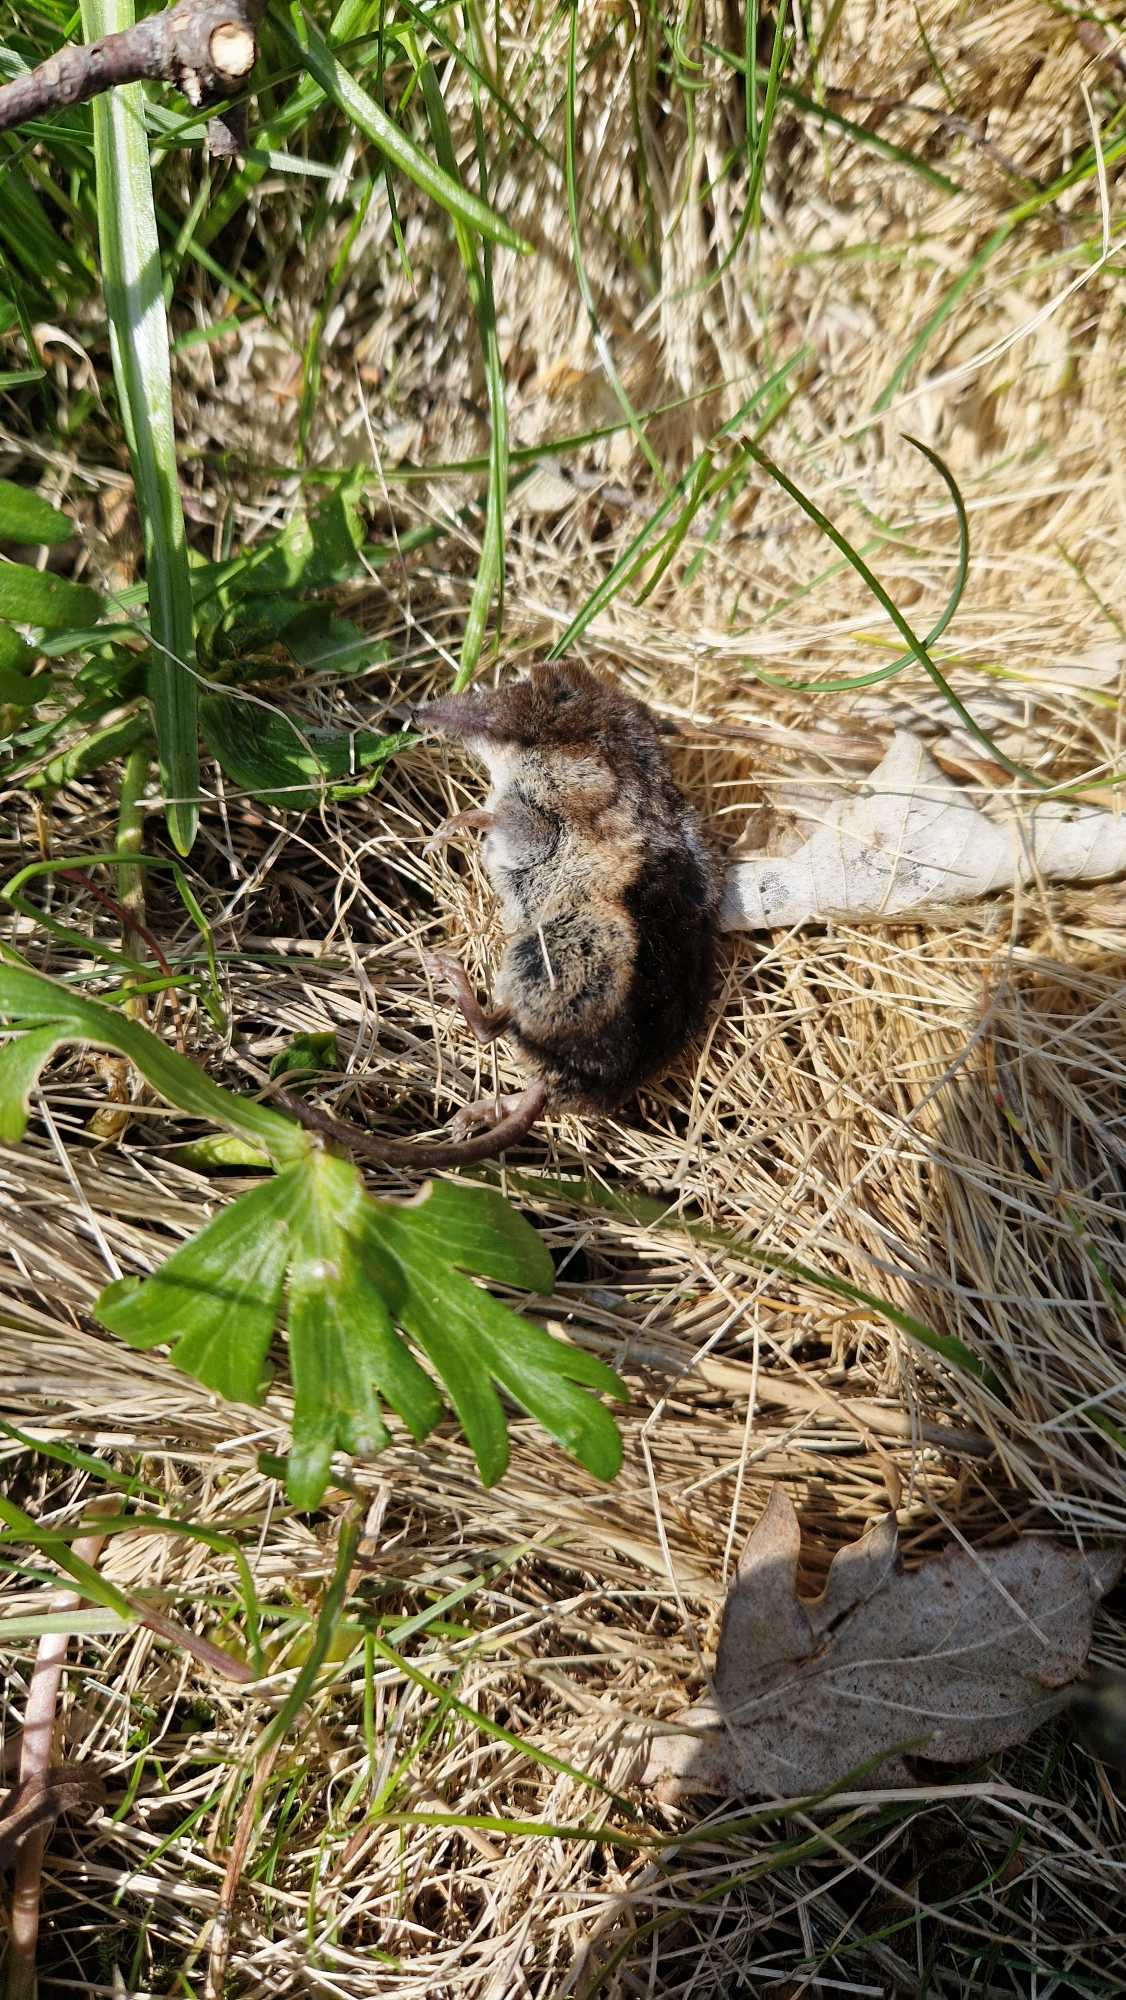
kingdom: Animalia
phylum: Chordata
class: Mammalia
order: Soricomorpha
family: Soricidae
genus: Sorex
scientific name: Sorex araneus
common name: Almindelig spidsmus
